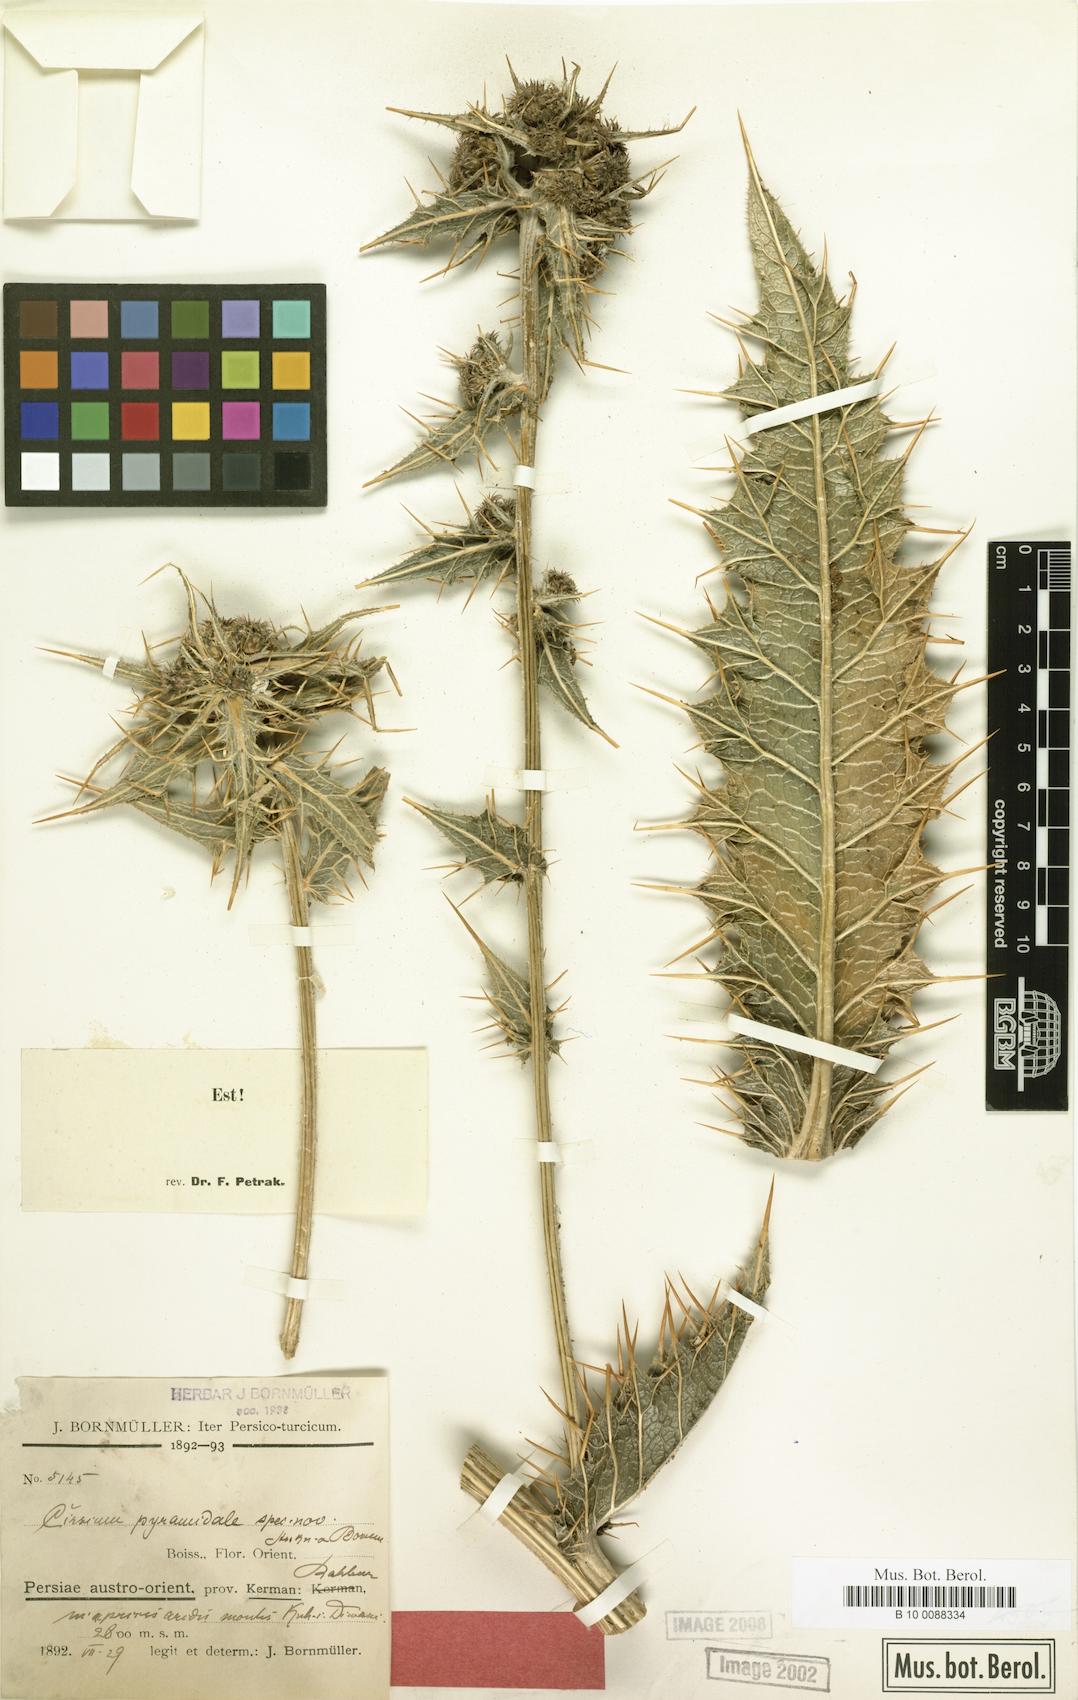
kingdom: Plantae
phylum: Tracheophyta
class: Magnoliopsida
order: Asterales
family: Asteraceae
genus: Lophiolepis
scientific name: Lophiolepis pyramidalis
